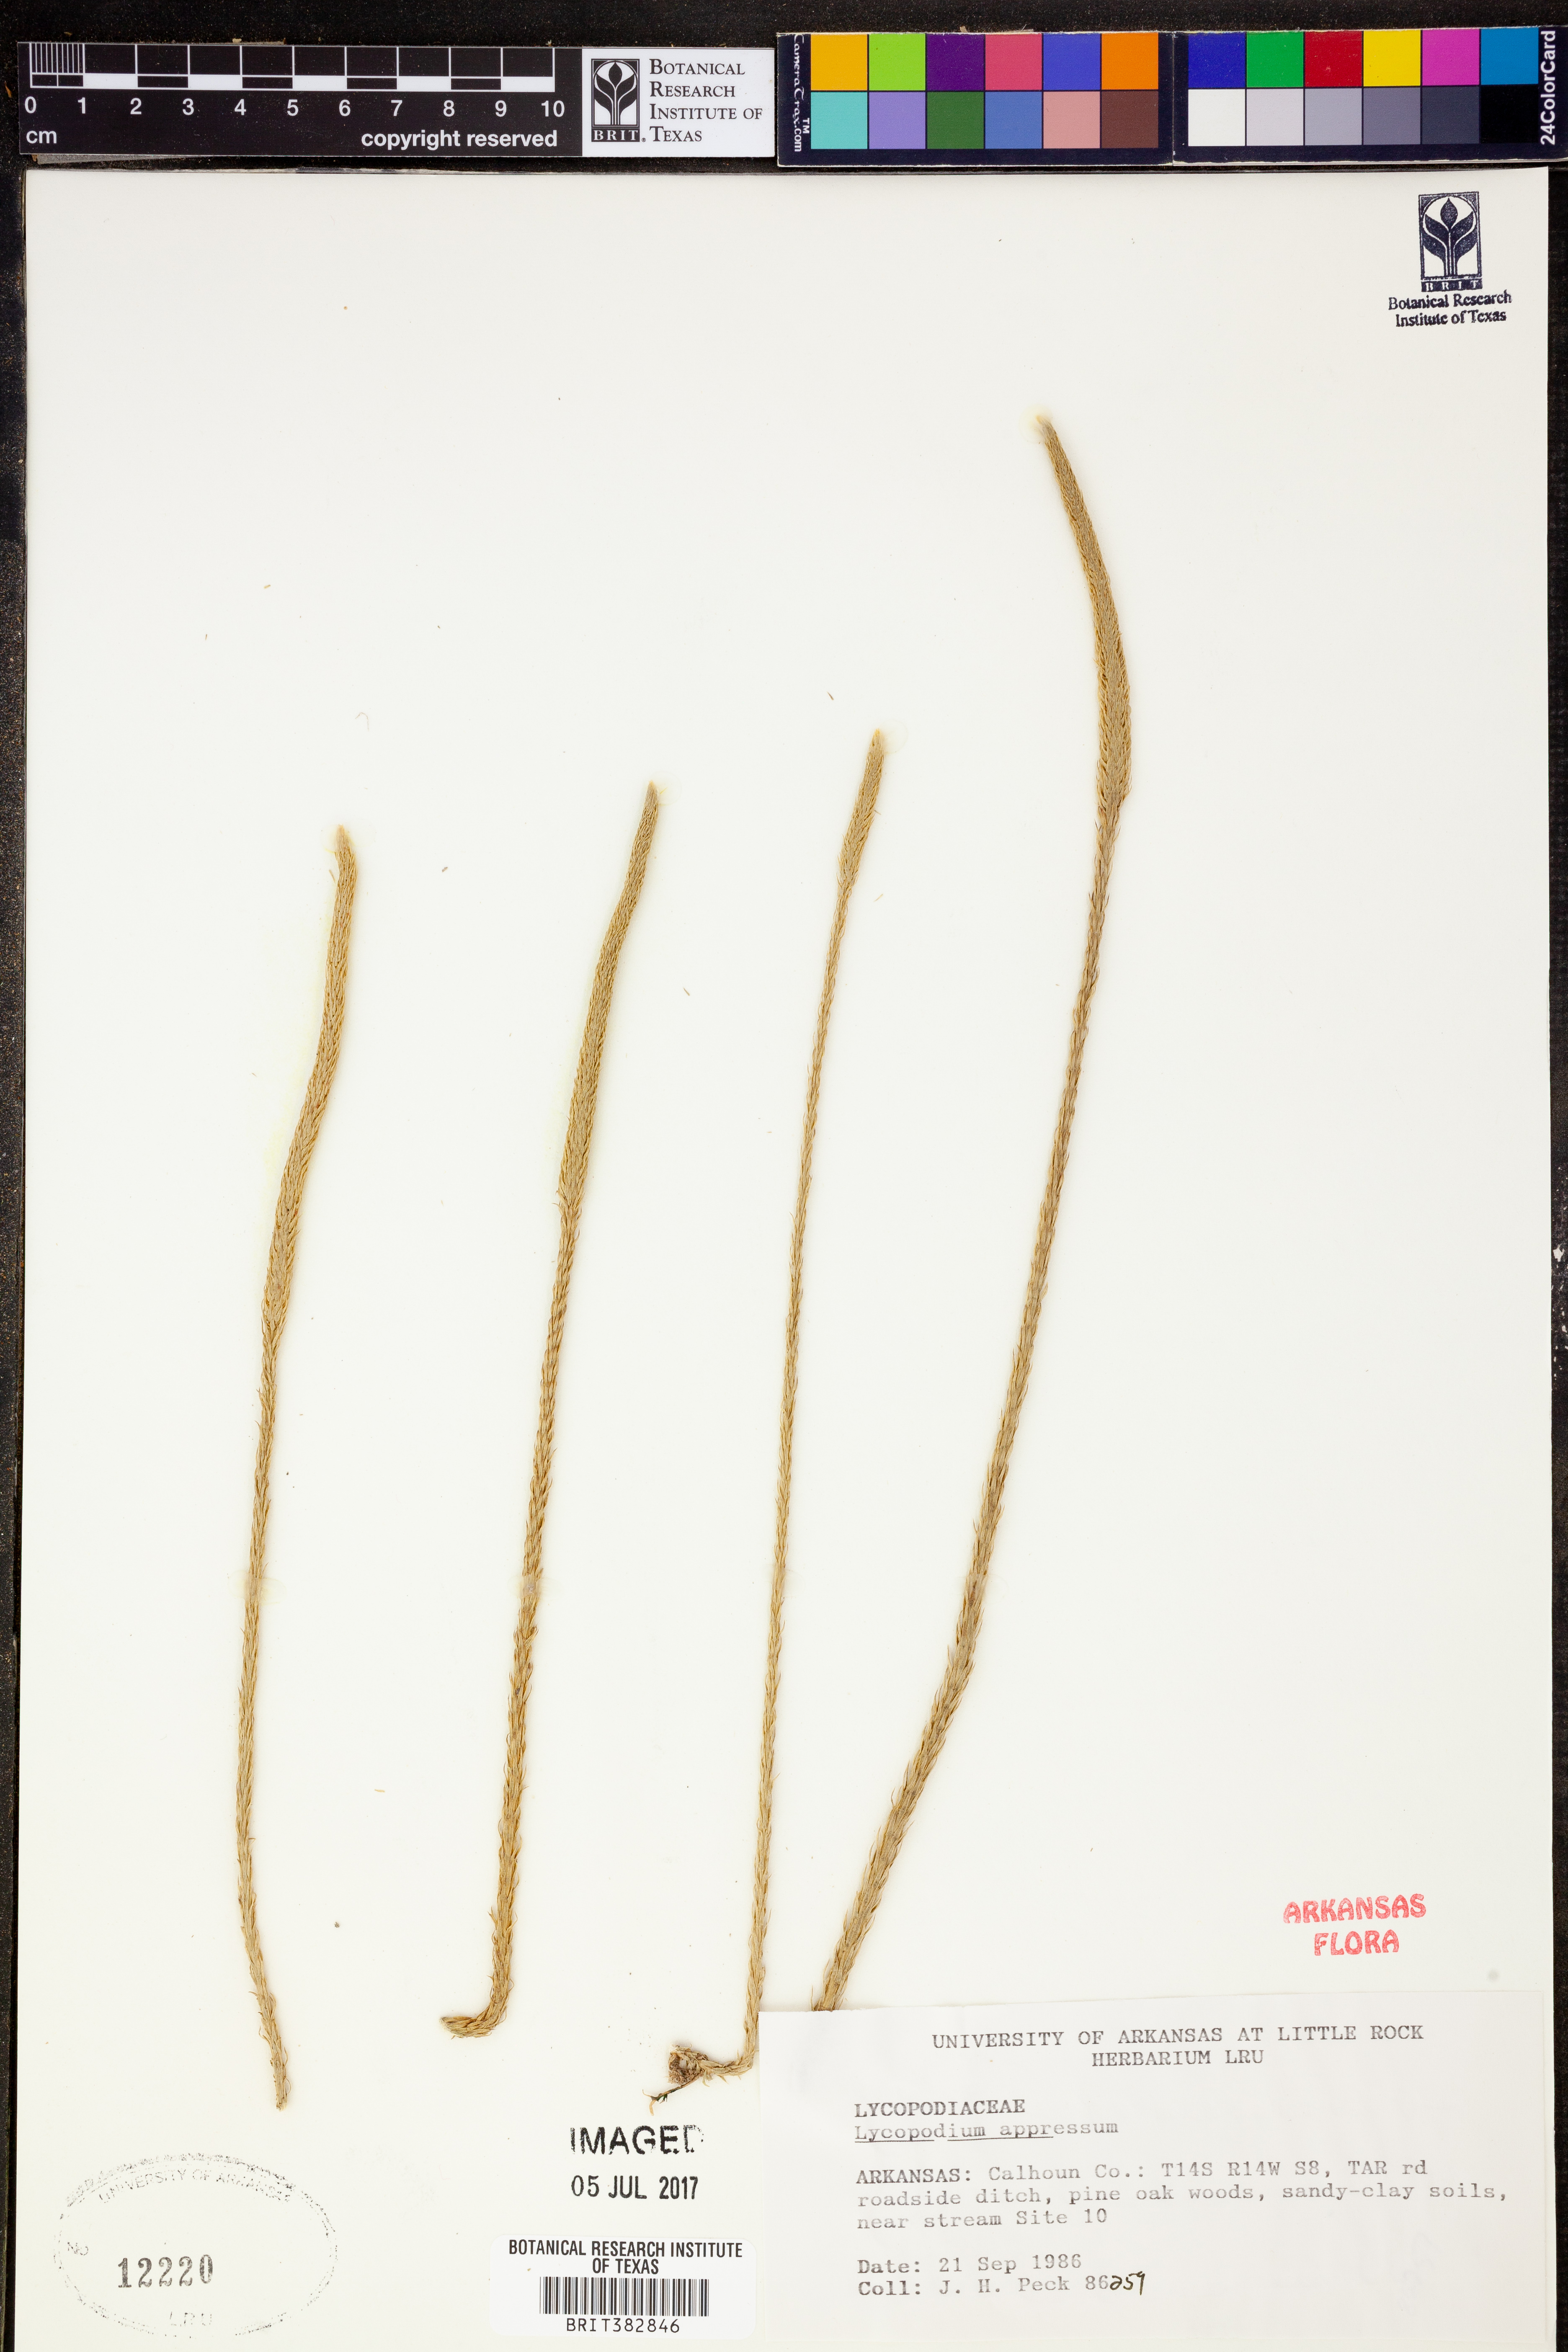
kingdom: Plantae
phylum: Tracheophyta
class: Lycopodiopsida
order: Lycopodiales
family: Lycopodiaceae
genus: Lycopodiella
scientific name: Lycopodiella appressa
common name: Appressed bog clubmoss
